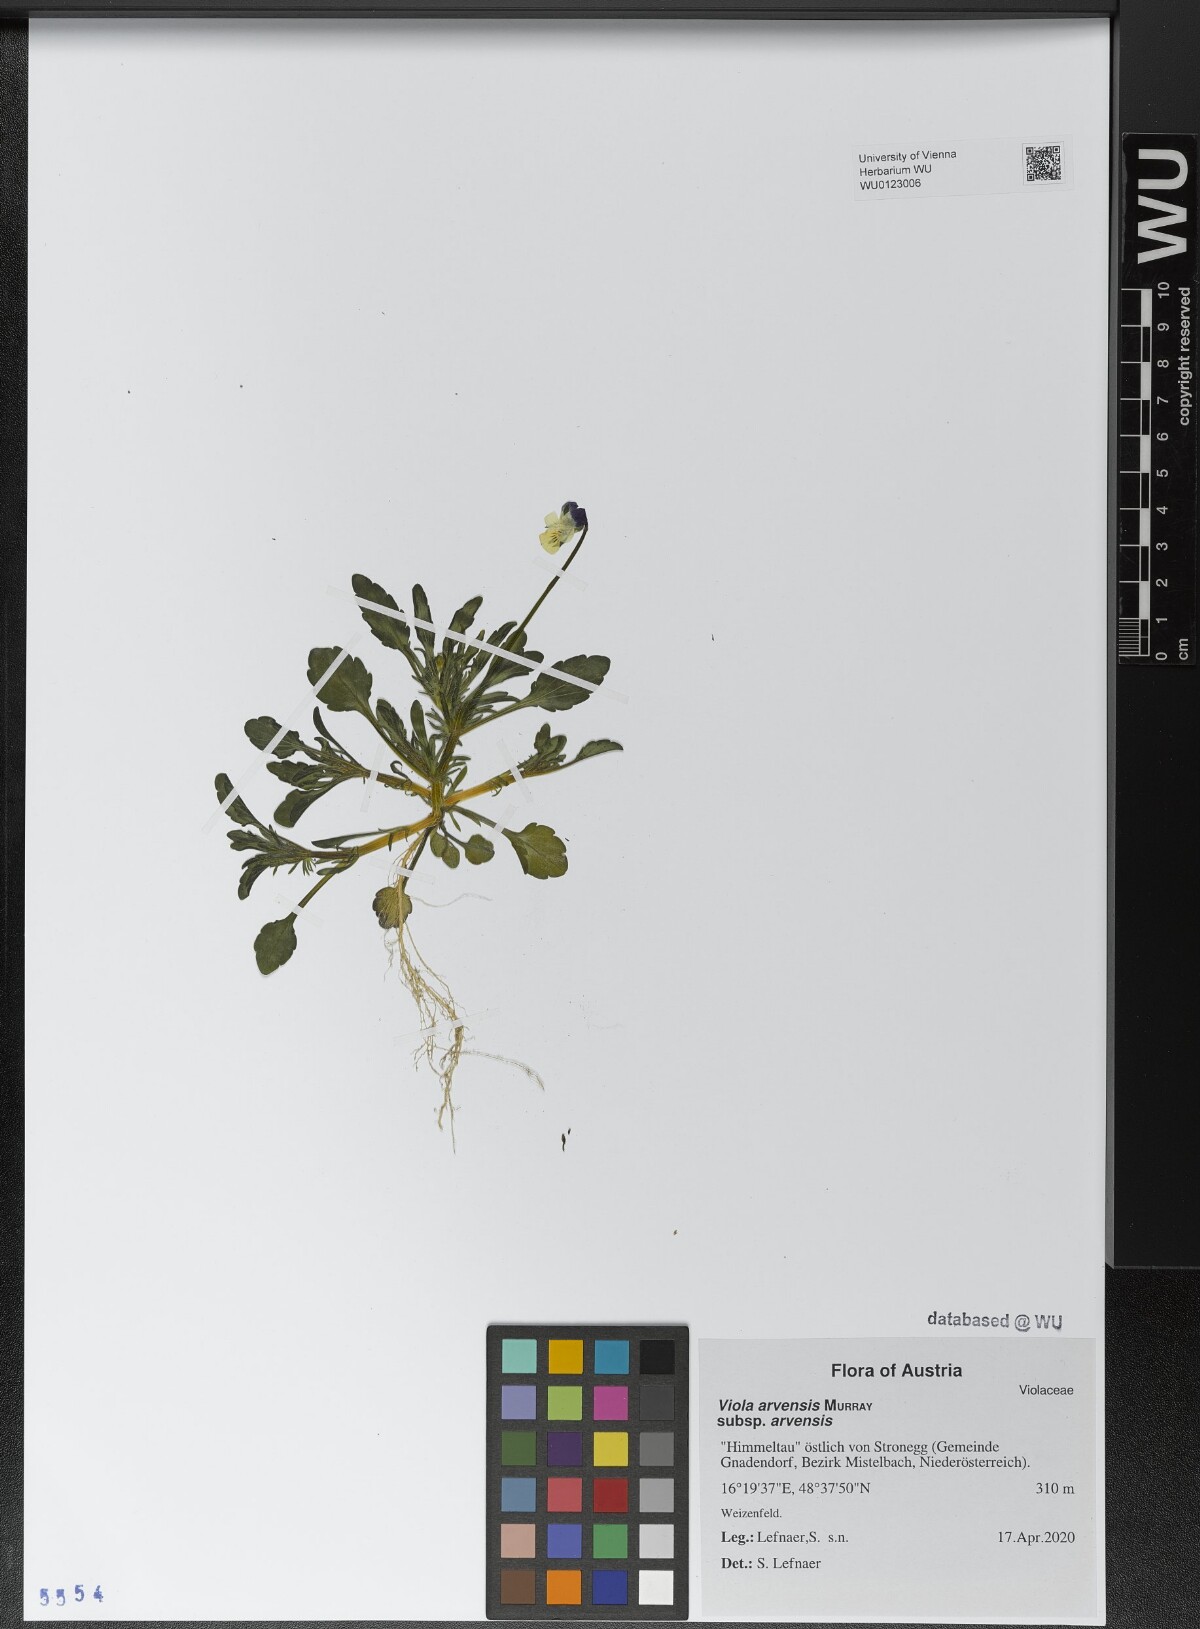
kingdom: Plantae
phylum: Tracheophyta
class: Magnoliopsida
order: Malpighiales
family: Violaceae
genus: Viola
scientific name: Viola arvensis
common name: Field pansy
